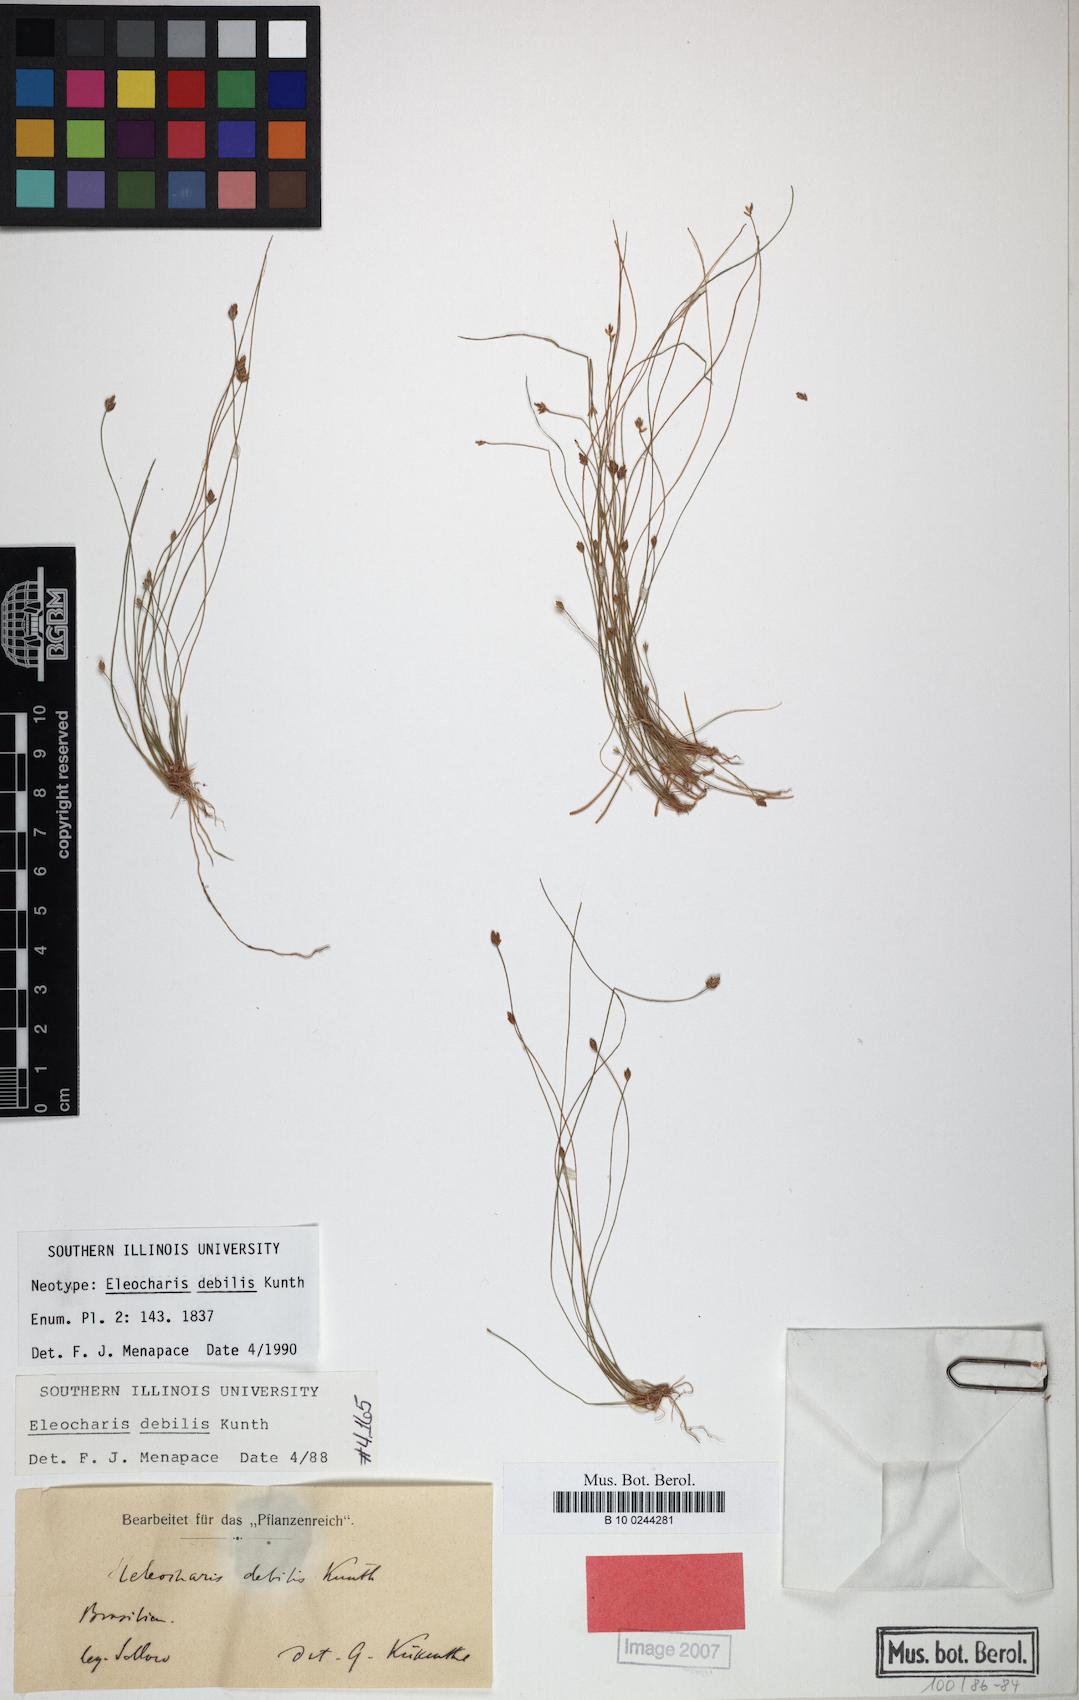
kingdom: Plantae
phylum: Tracheophyta
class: Liliopsida
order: Poales
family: Cyperaceae
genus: Eleocharis
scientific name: Eleocharis debilis
